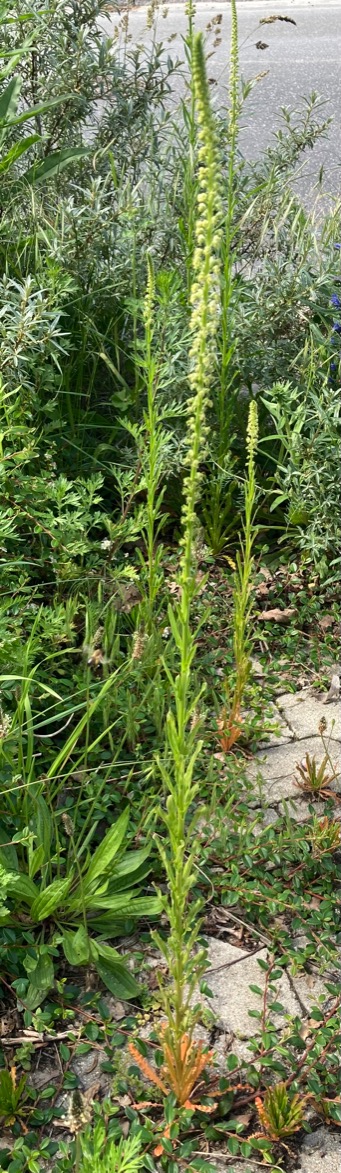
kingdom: Plantae
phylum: Tracheophyta
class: Magnoliopsida
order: Brassicales
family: Resedaceae
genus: Reseda
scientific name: Reseda luteola
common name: Farve-reseda
